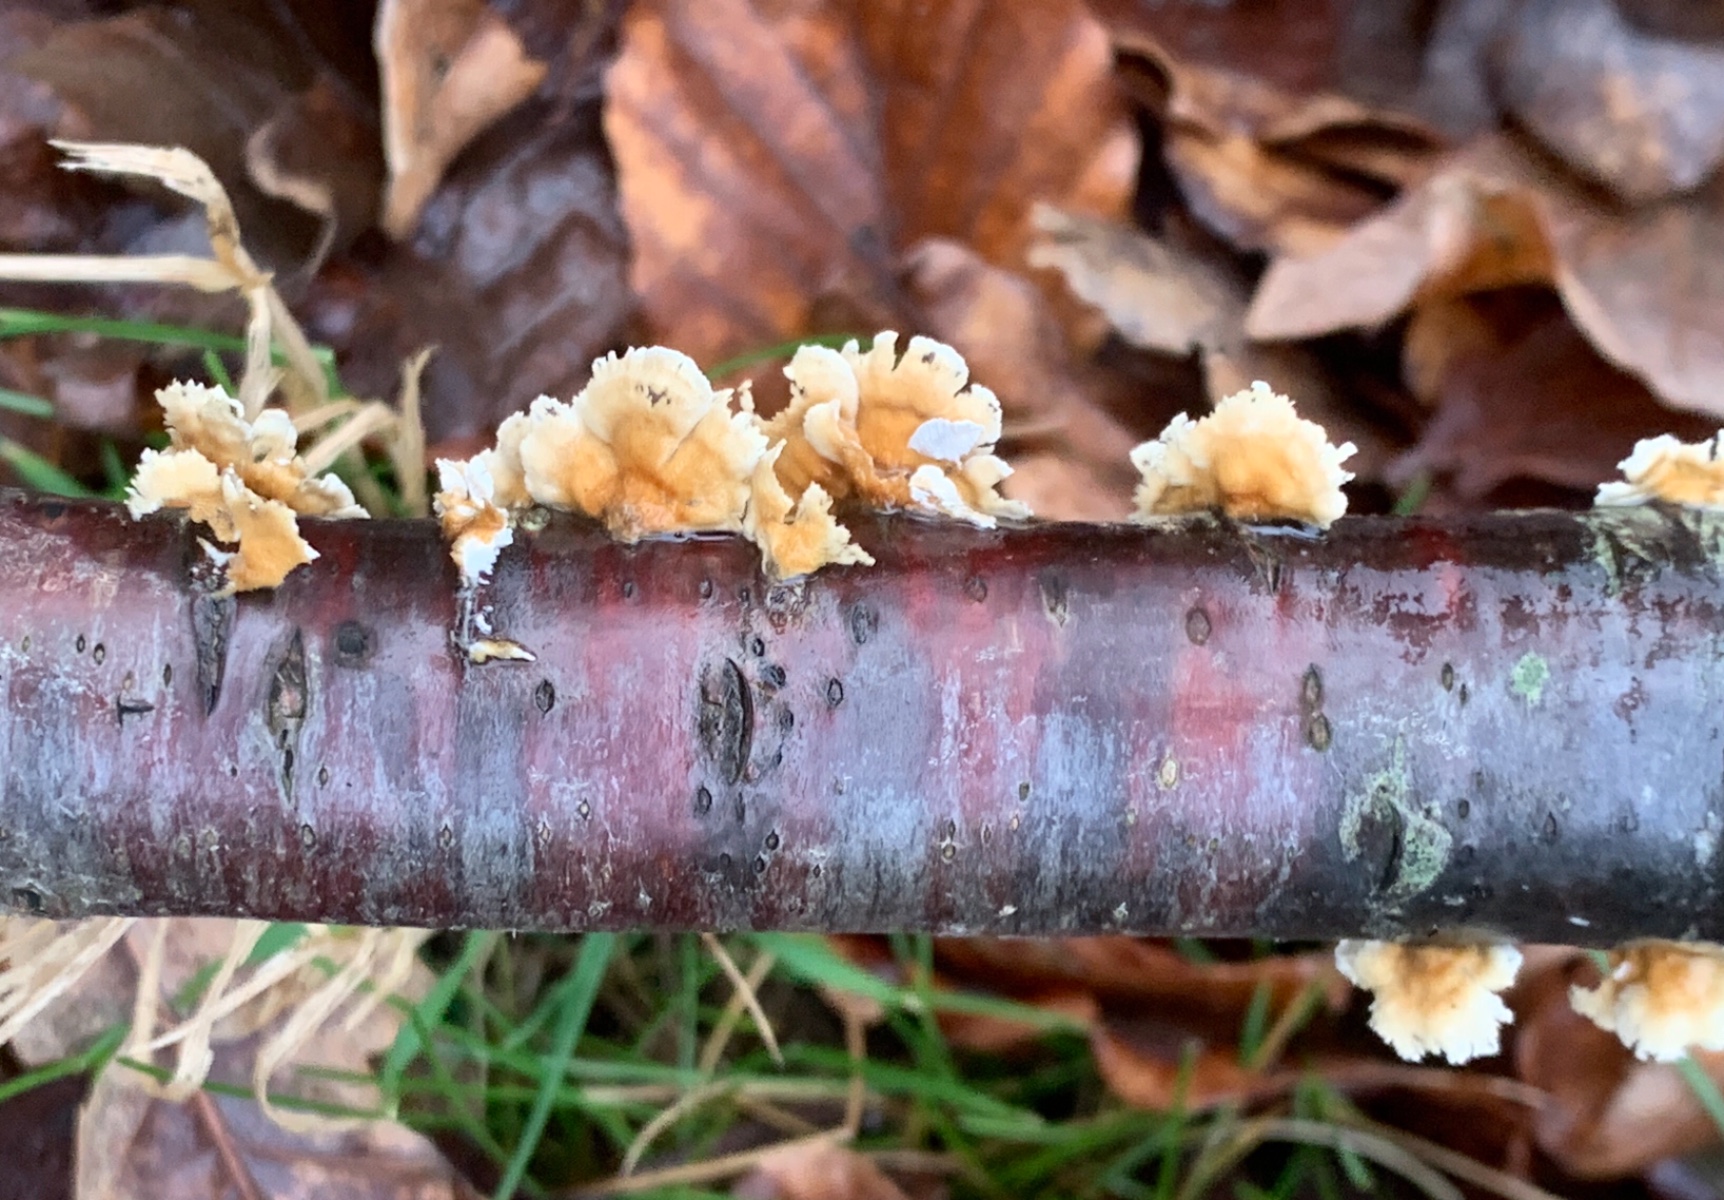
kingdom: Fungi
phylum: Basidiomycota
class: Agaricomycetes
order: Amylocorticiales
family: Amylocorticiaceae
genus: Plicaturopsis
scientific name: Plicaturopsis crispa
